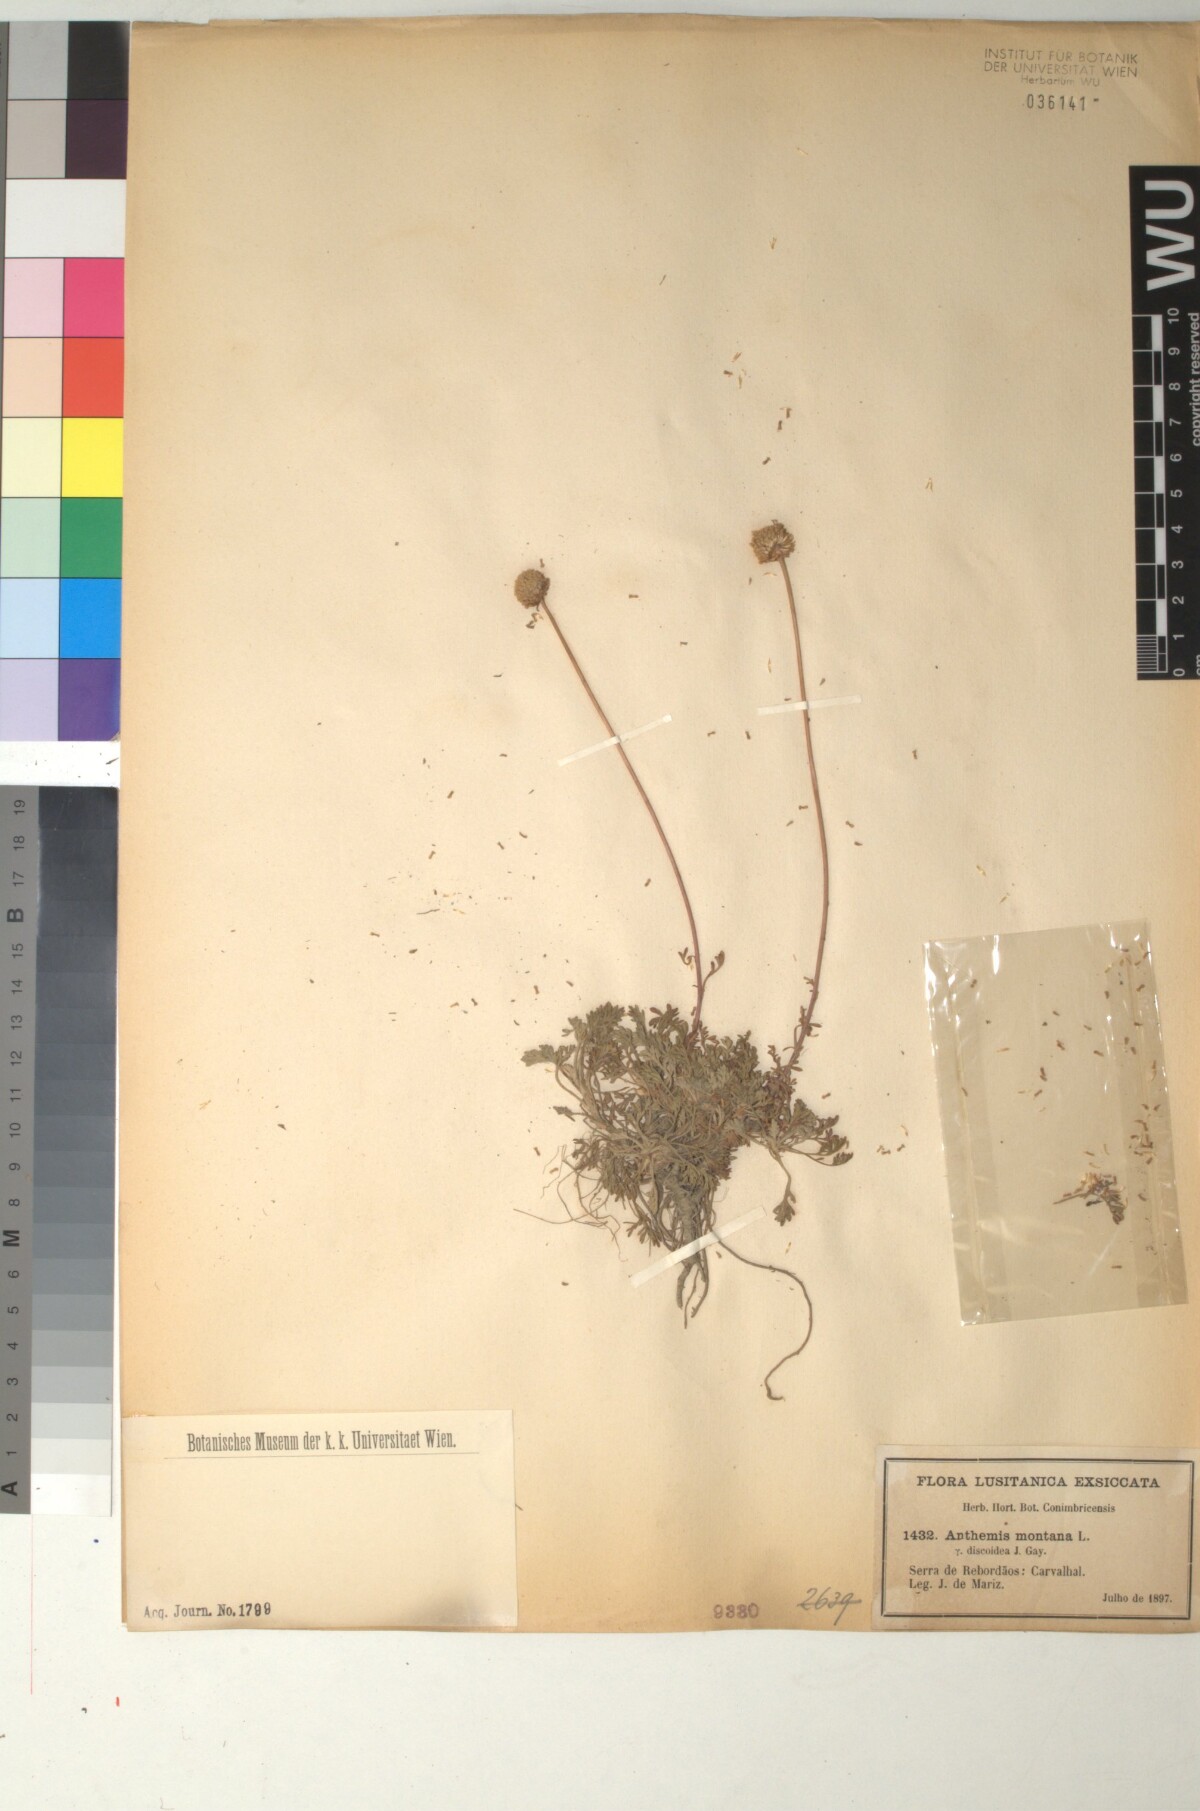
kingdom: Plantae
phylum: Tracheophyta
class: Magnoliopsida
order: Asterales
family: Asteraceae
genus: Anthemis
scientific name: Anthemis alpestris
